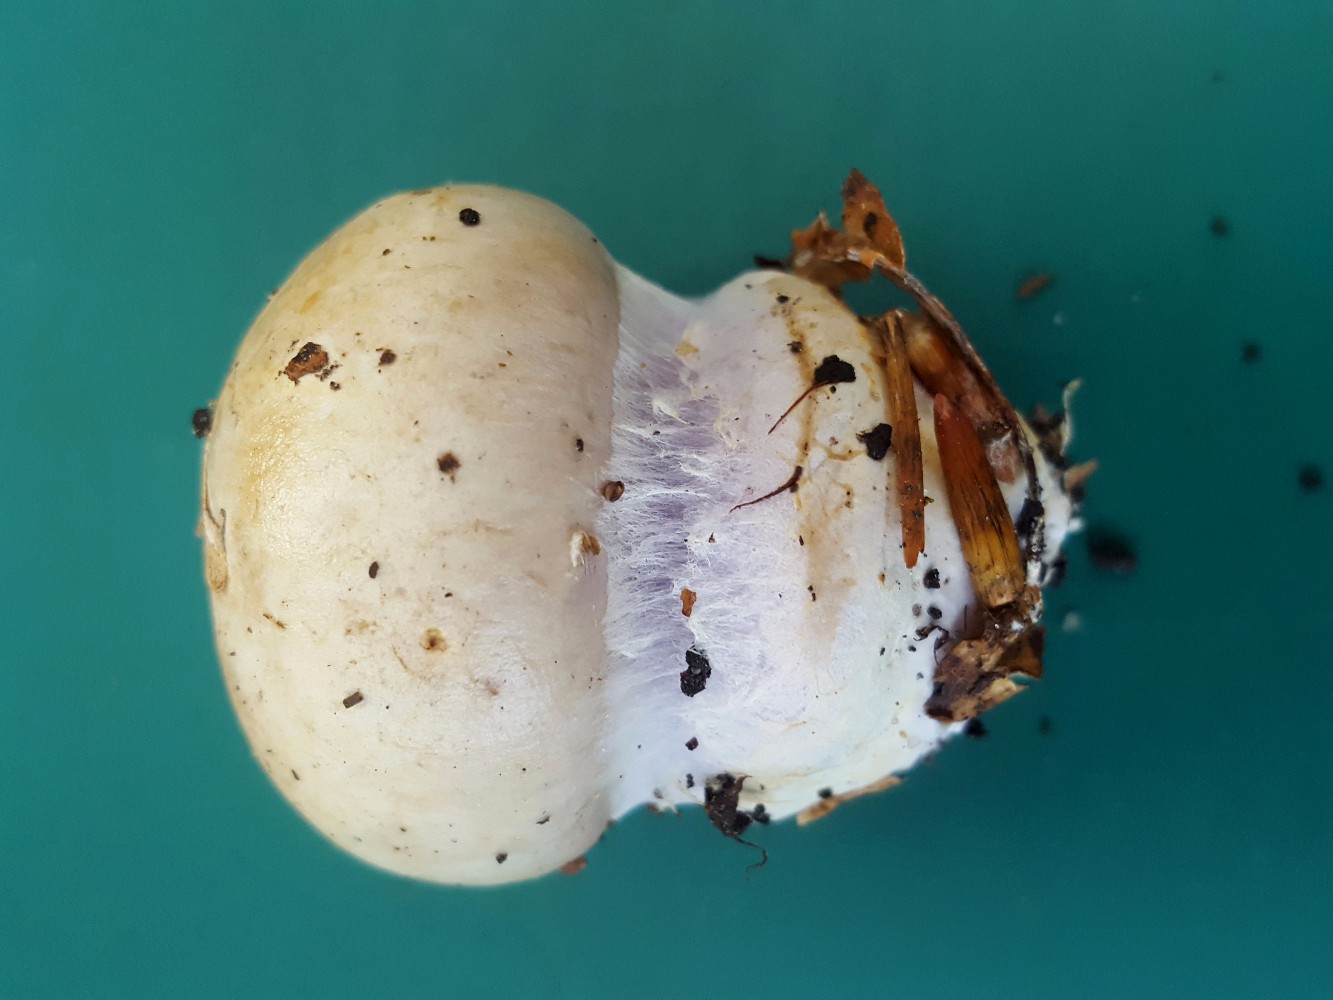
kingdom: Fungi
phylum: Basidiomycota
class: Agaricomycetes
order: Agaricales
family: Cortinariaceae
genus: Cortinarius
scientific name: Cortinarius anserinus
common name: bøge-slørhat
